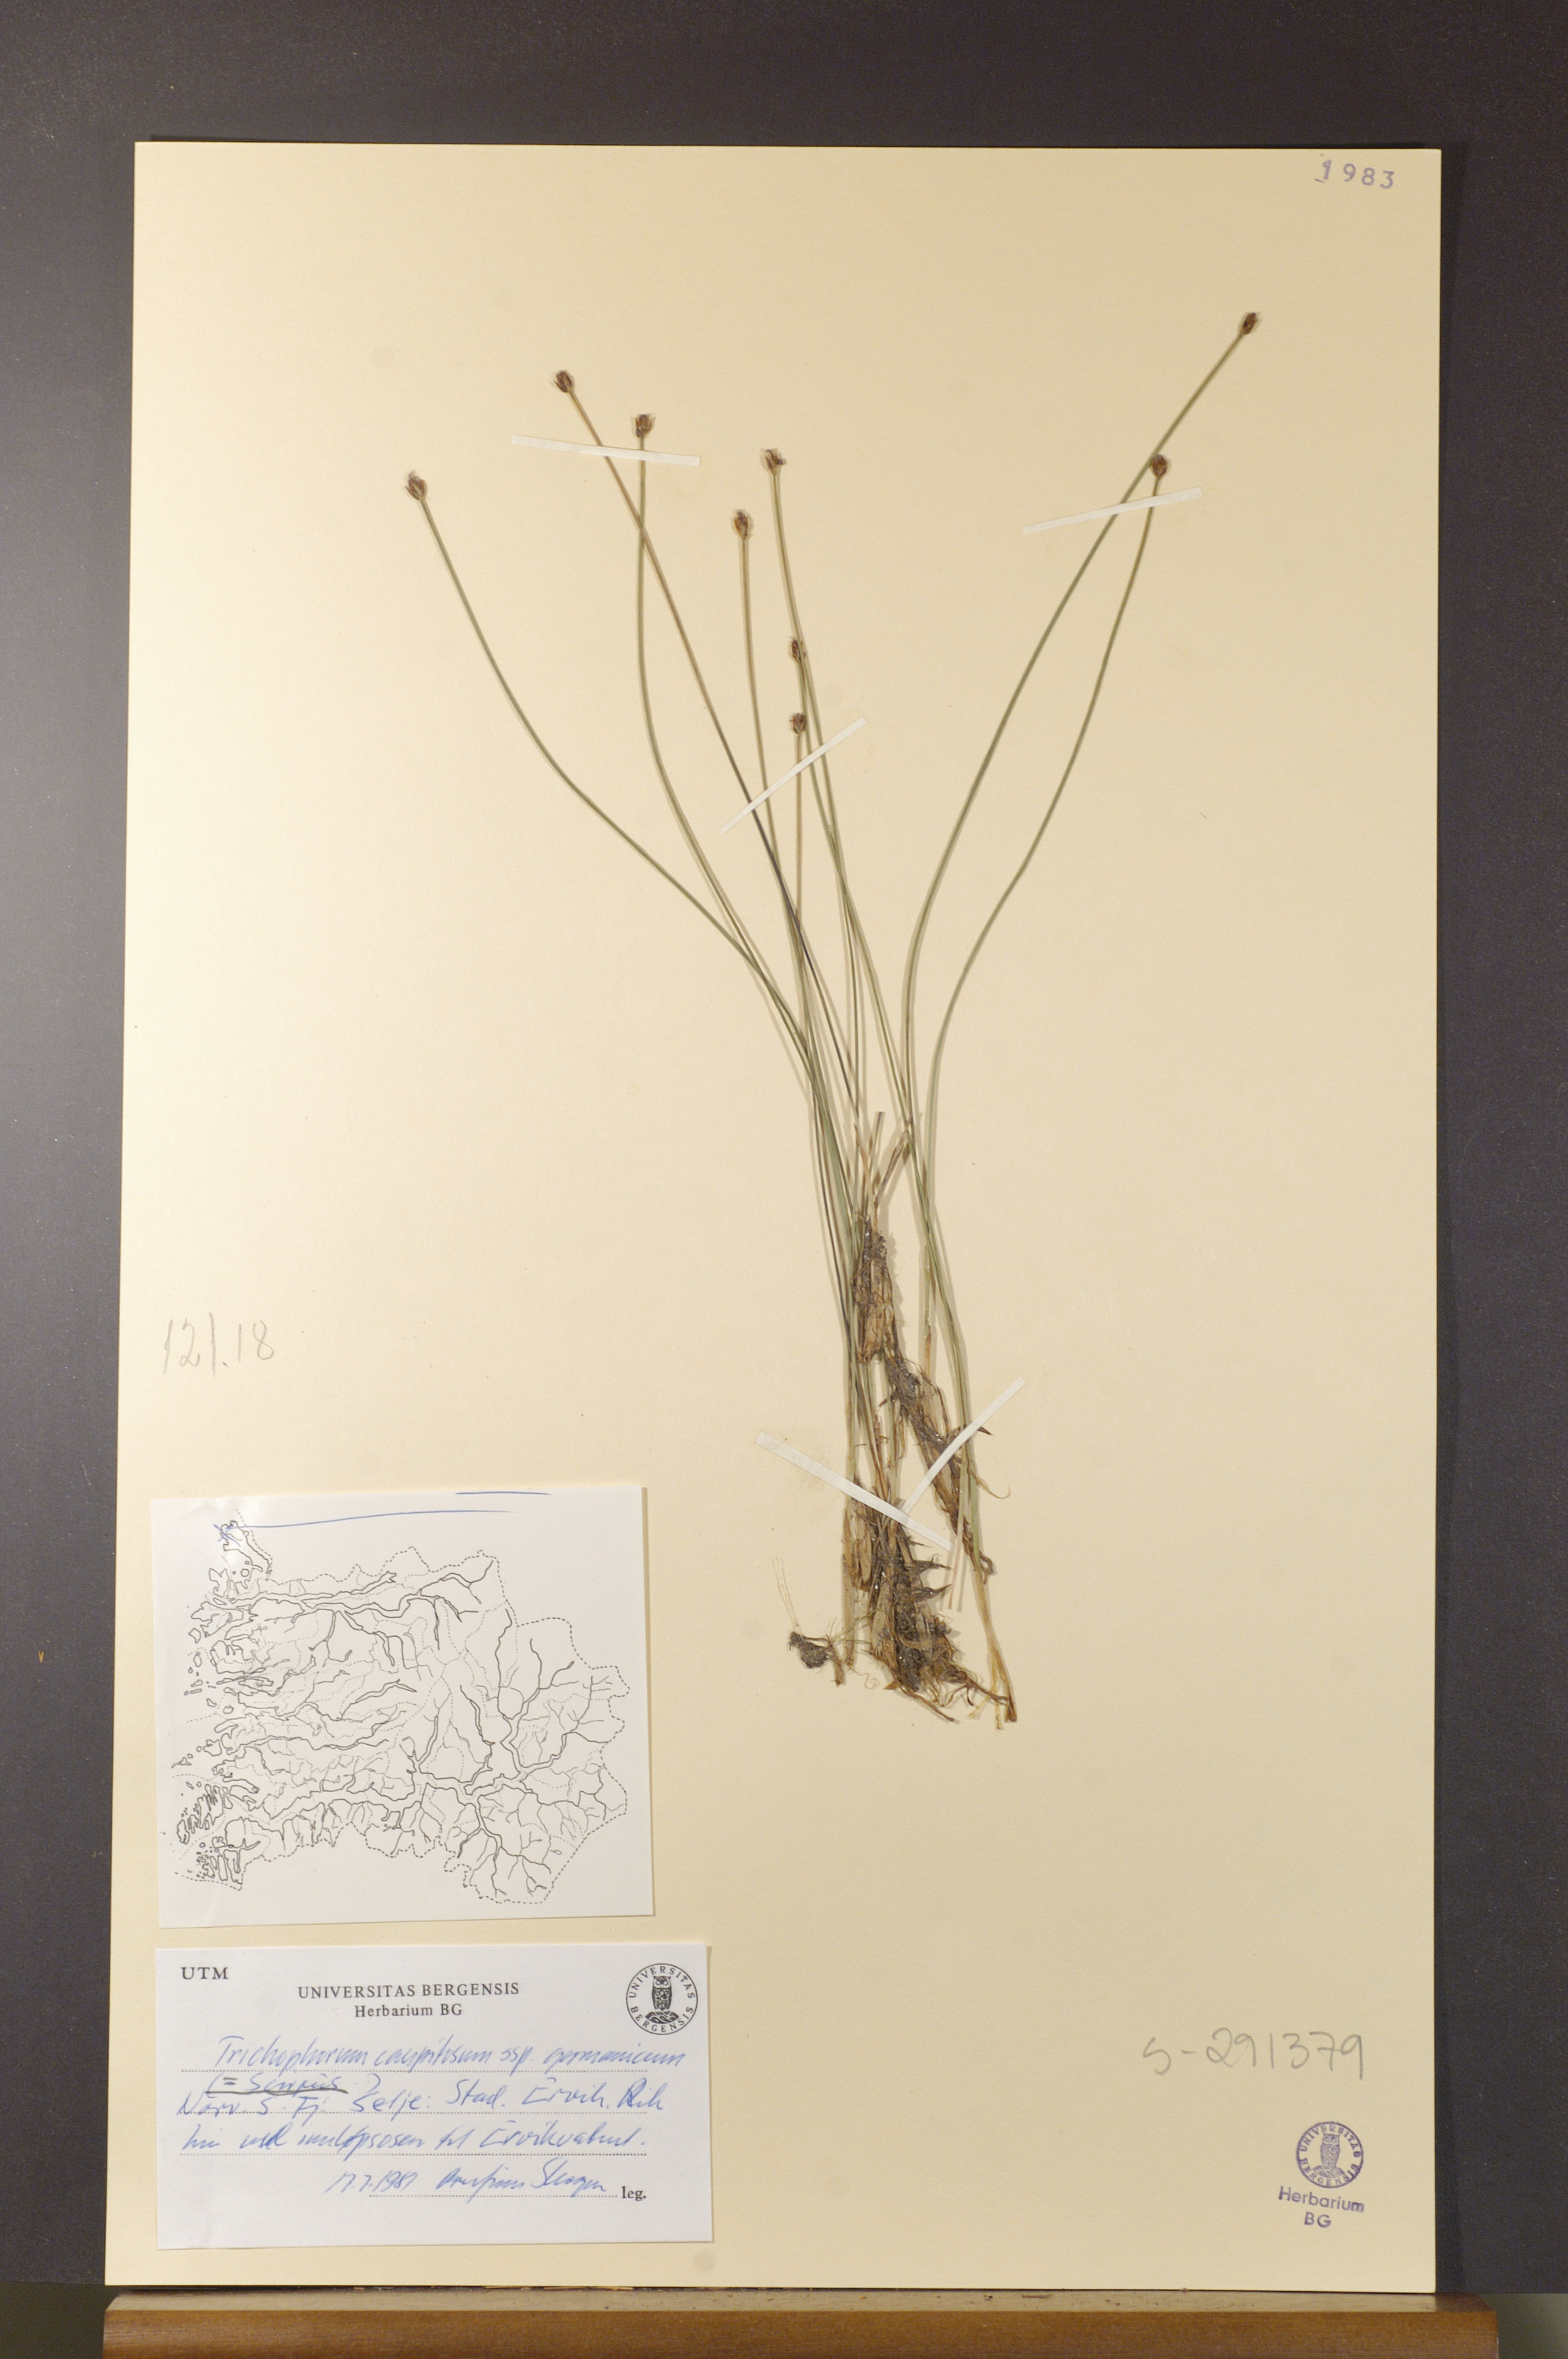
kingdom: Plantae
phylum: Tracheophyta
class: Liliopsida
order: Poales
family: Cyperaceae
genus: Trichophorum
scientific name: Trichophorum cespitosum
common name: Cespitose bulrush
